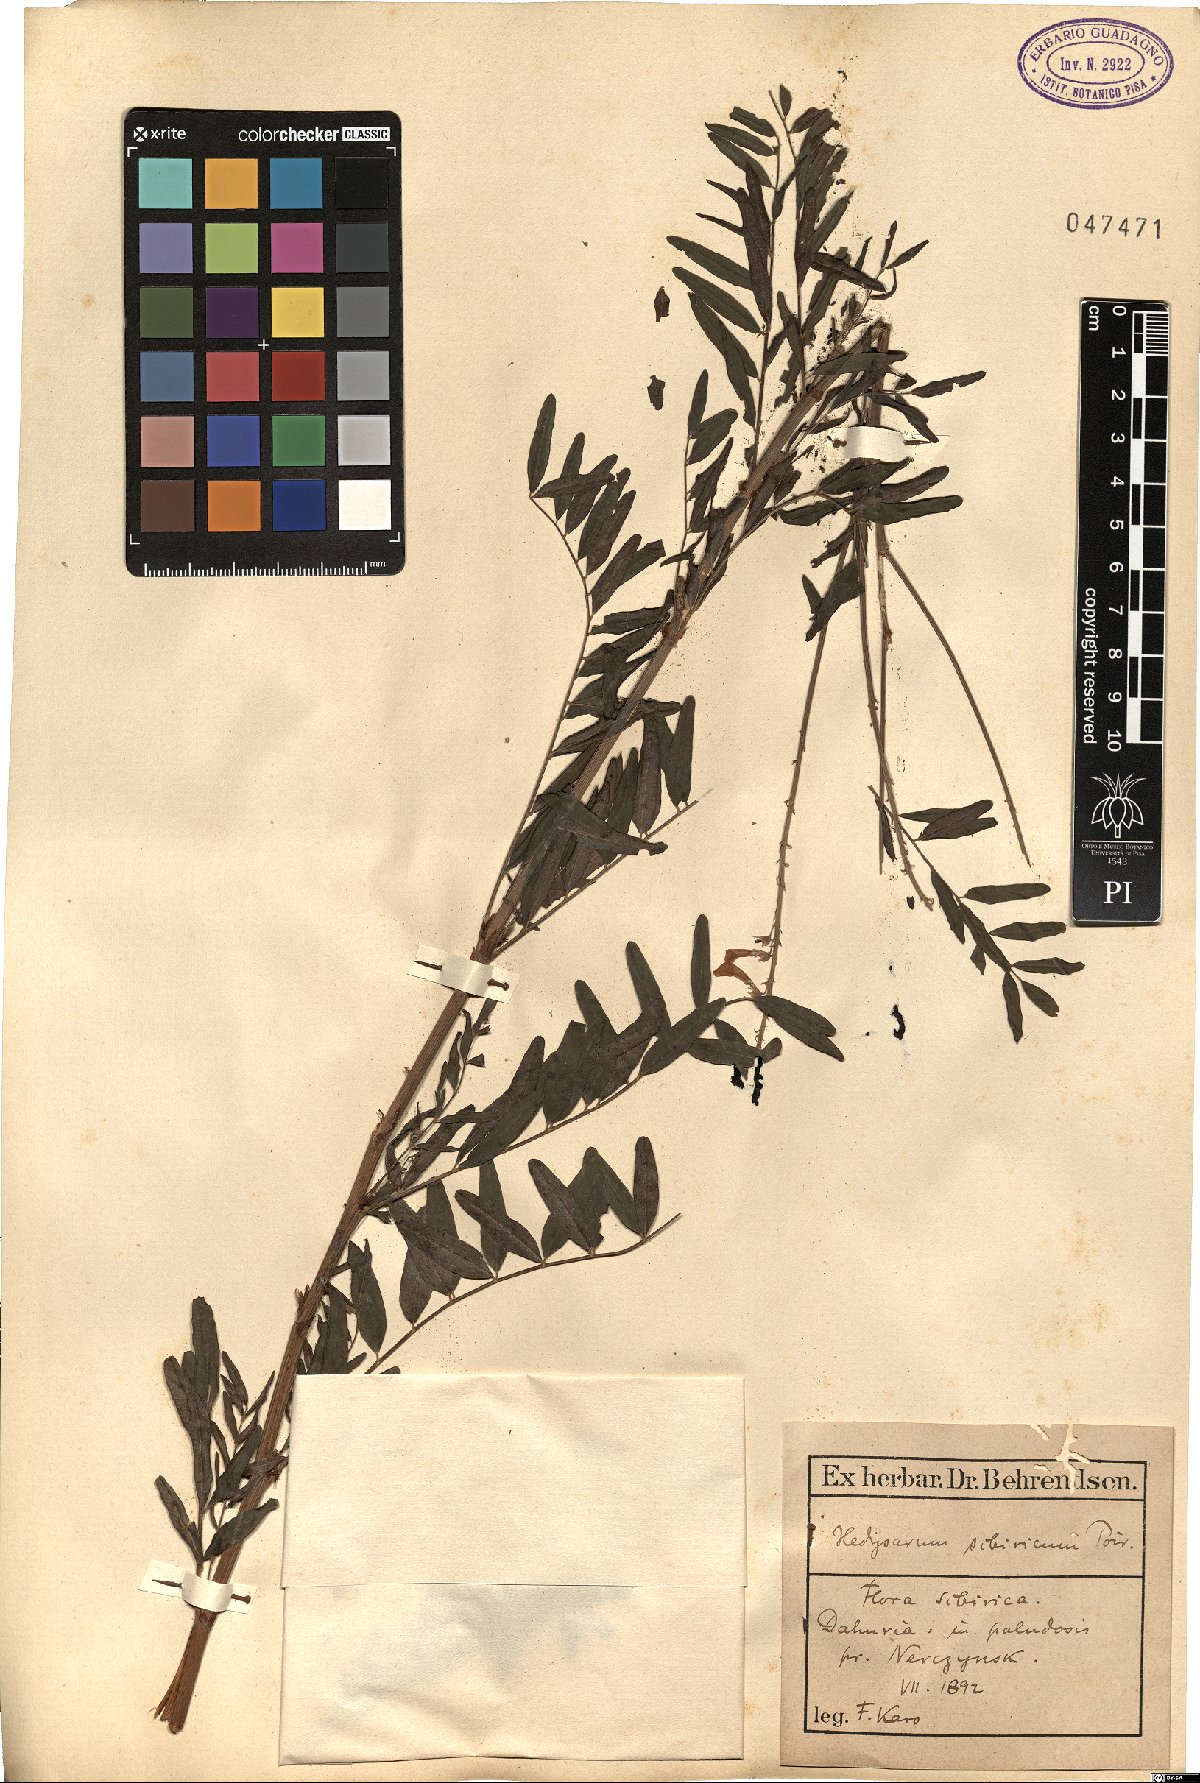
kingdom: Plantae
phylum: Tracheophyta
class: Magnoliopsida
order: Fabales
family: Fabaceae
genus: Hedysarum
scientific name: Hedysarum hedysaroides
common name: Alpine french-honeysuckle
